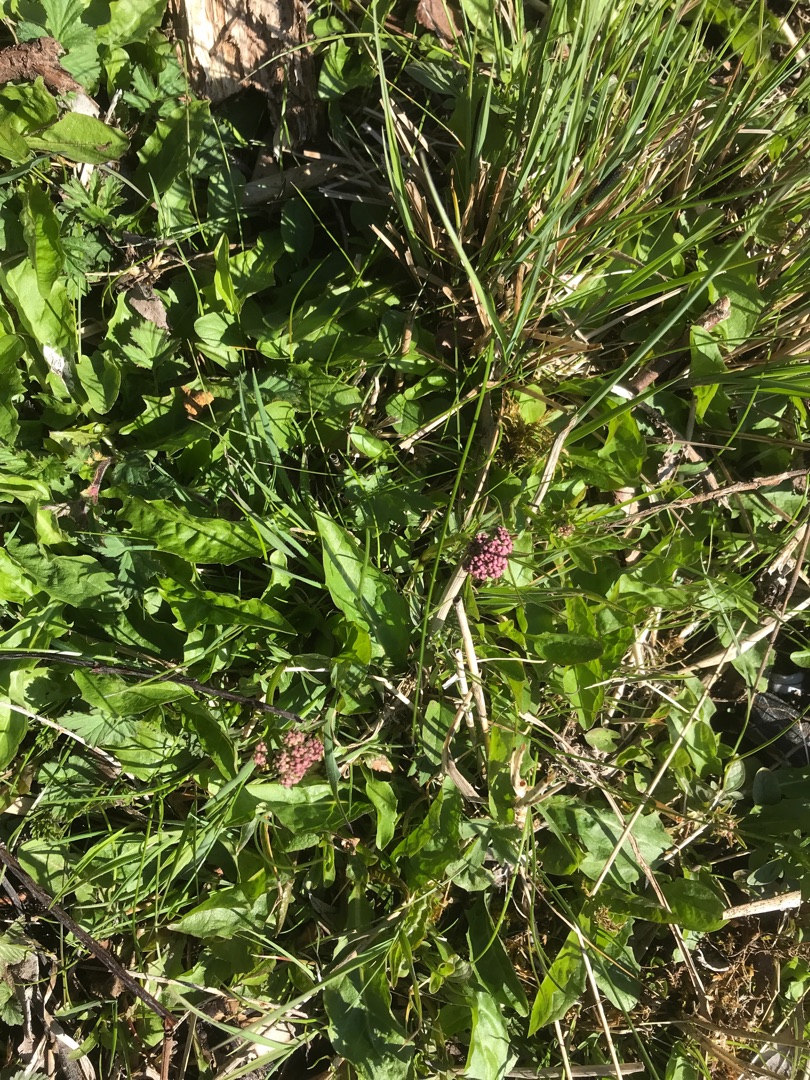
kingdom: Plantae
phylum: Tracheophyta
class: Magnoliopsida
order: Dipsacales
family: Caprifoliaceae
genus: Valeriana
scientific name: Valeriana dioica
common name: Tvebo baldrian
